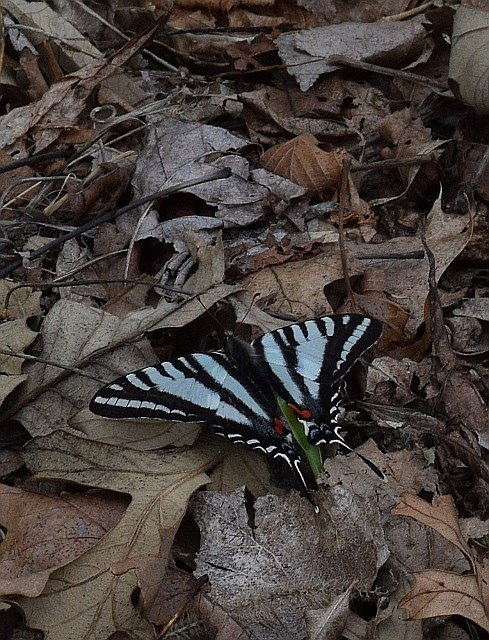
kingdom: Animalia
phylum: Arthropoda
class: Insecta
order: Lepidoptera
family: Papilionidae
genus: Protographium
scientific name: Protographium marcellus
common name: Zebra Swallowtail
